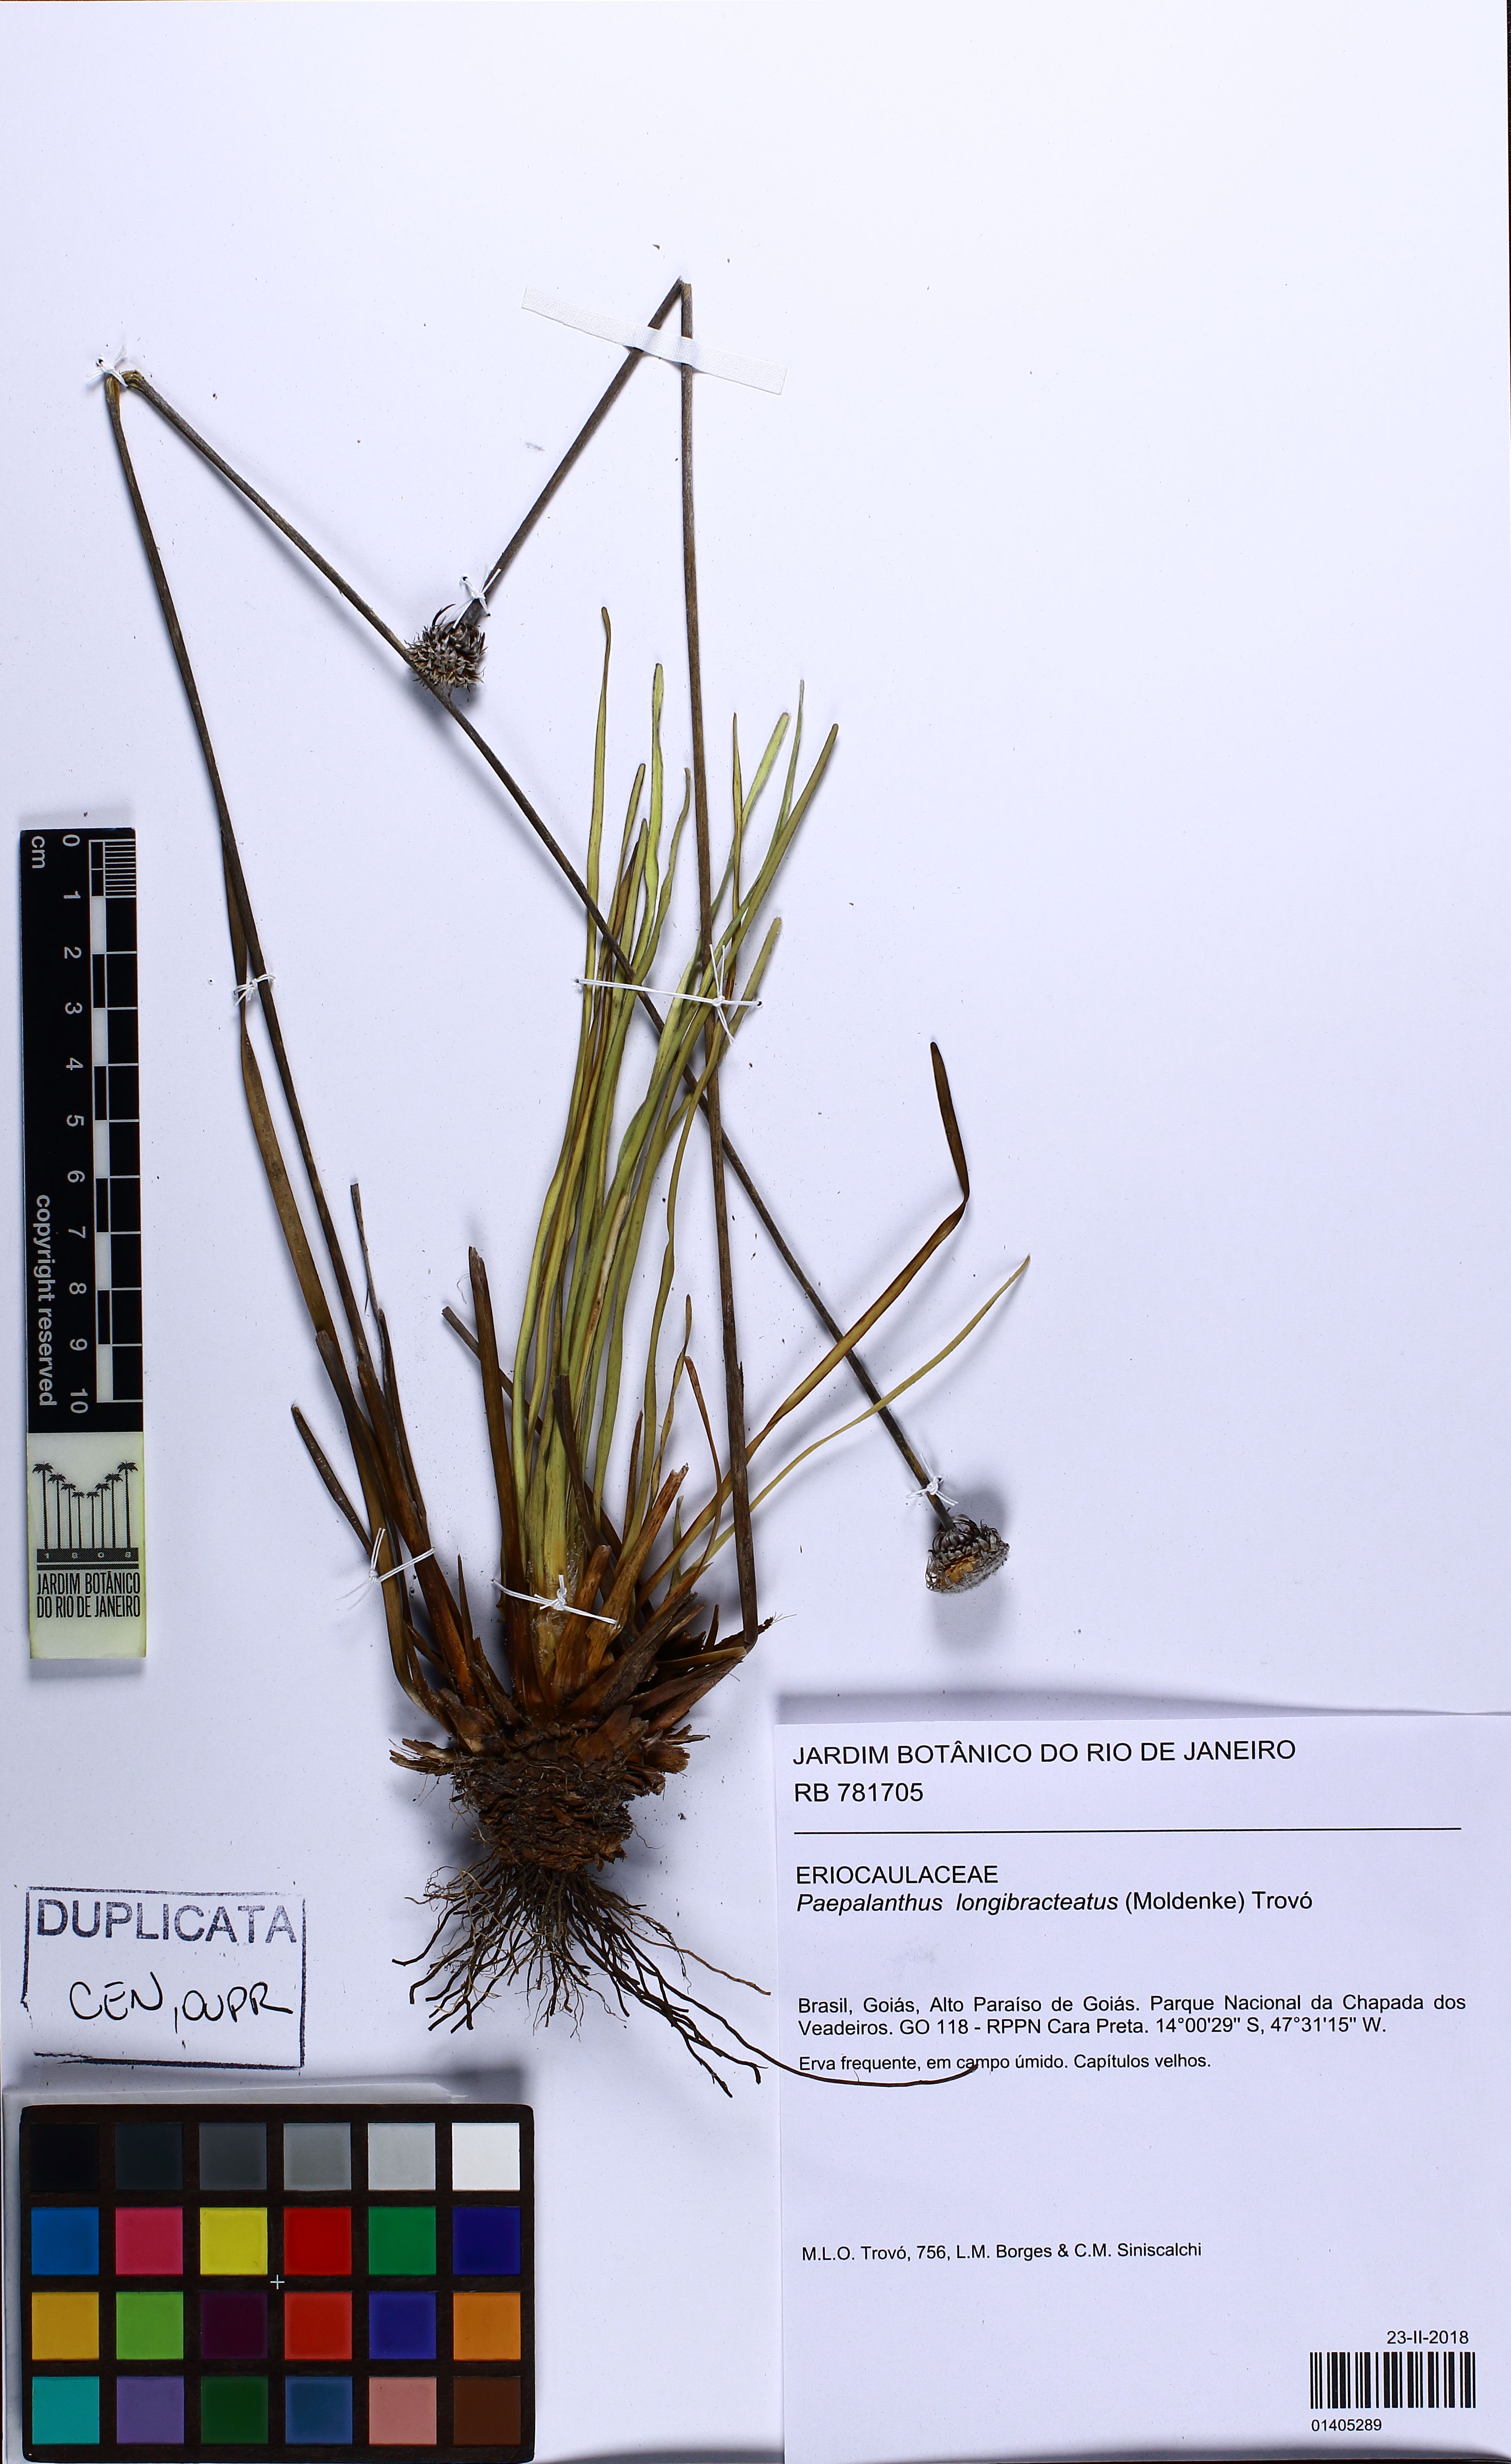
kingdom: Plantae
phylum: Tracheophyta
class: Liliopsida
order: Poales
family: Eriocaulaceae
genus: Paepalanthus
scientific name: Paepalanthus longibracteatus
